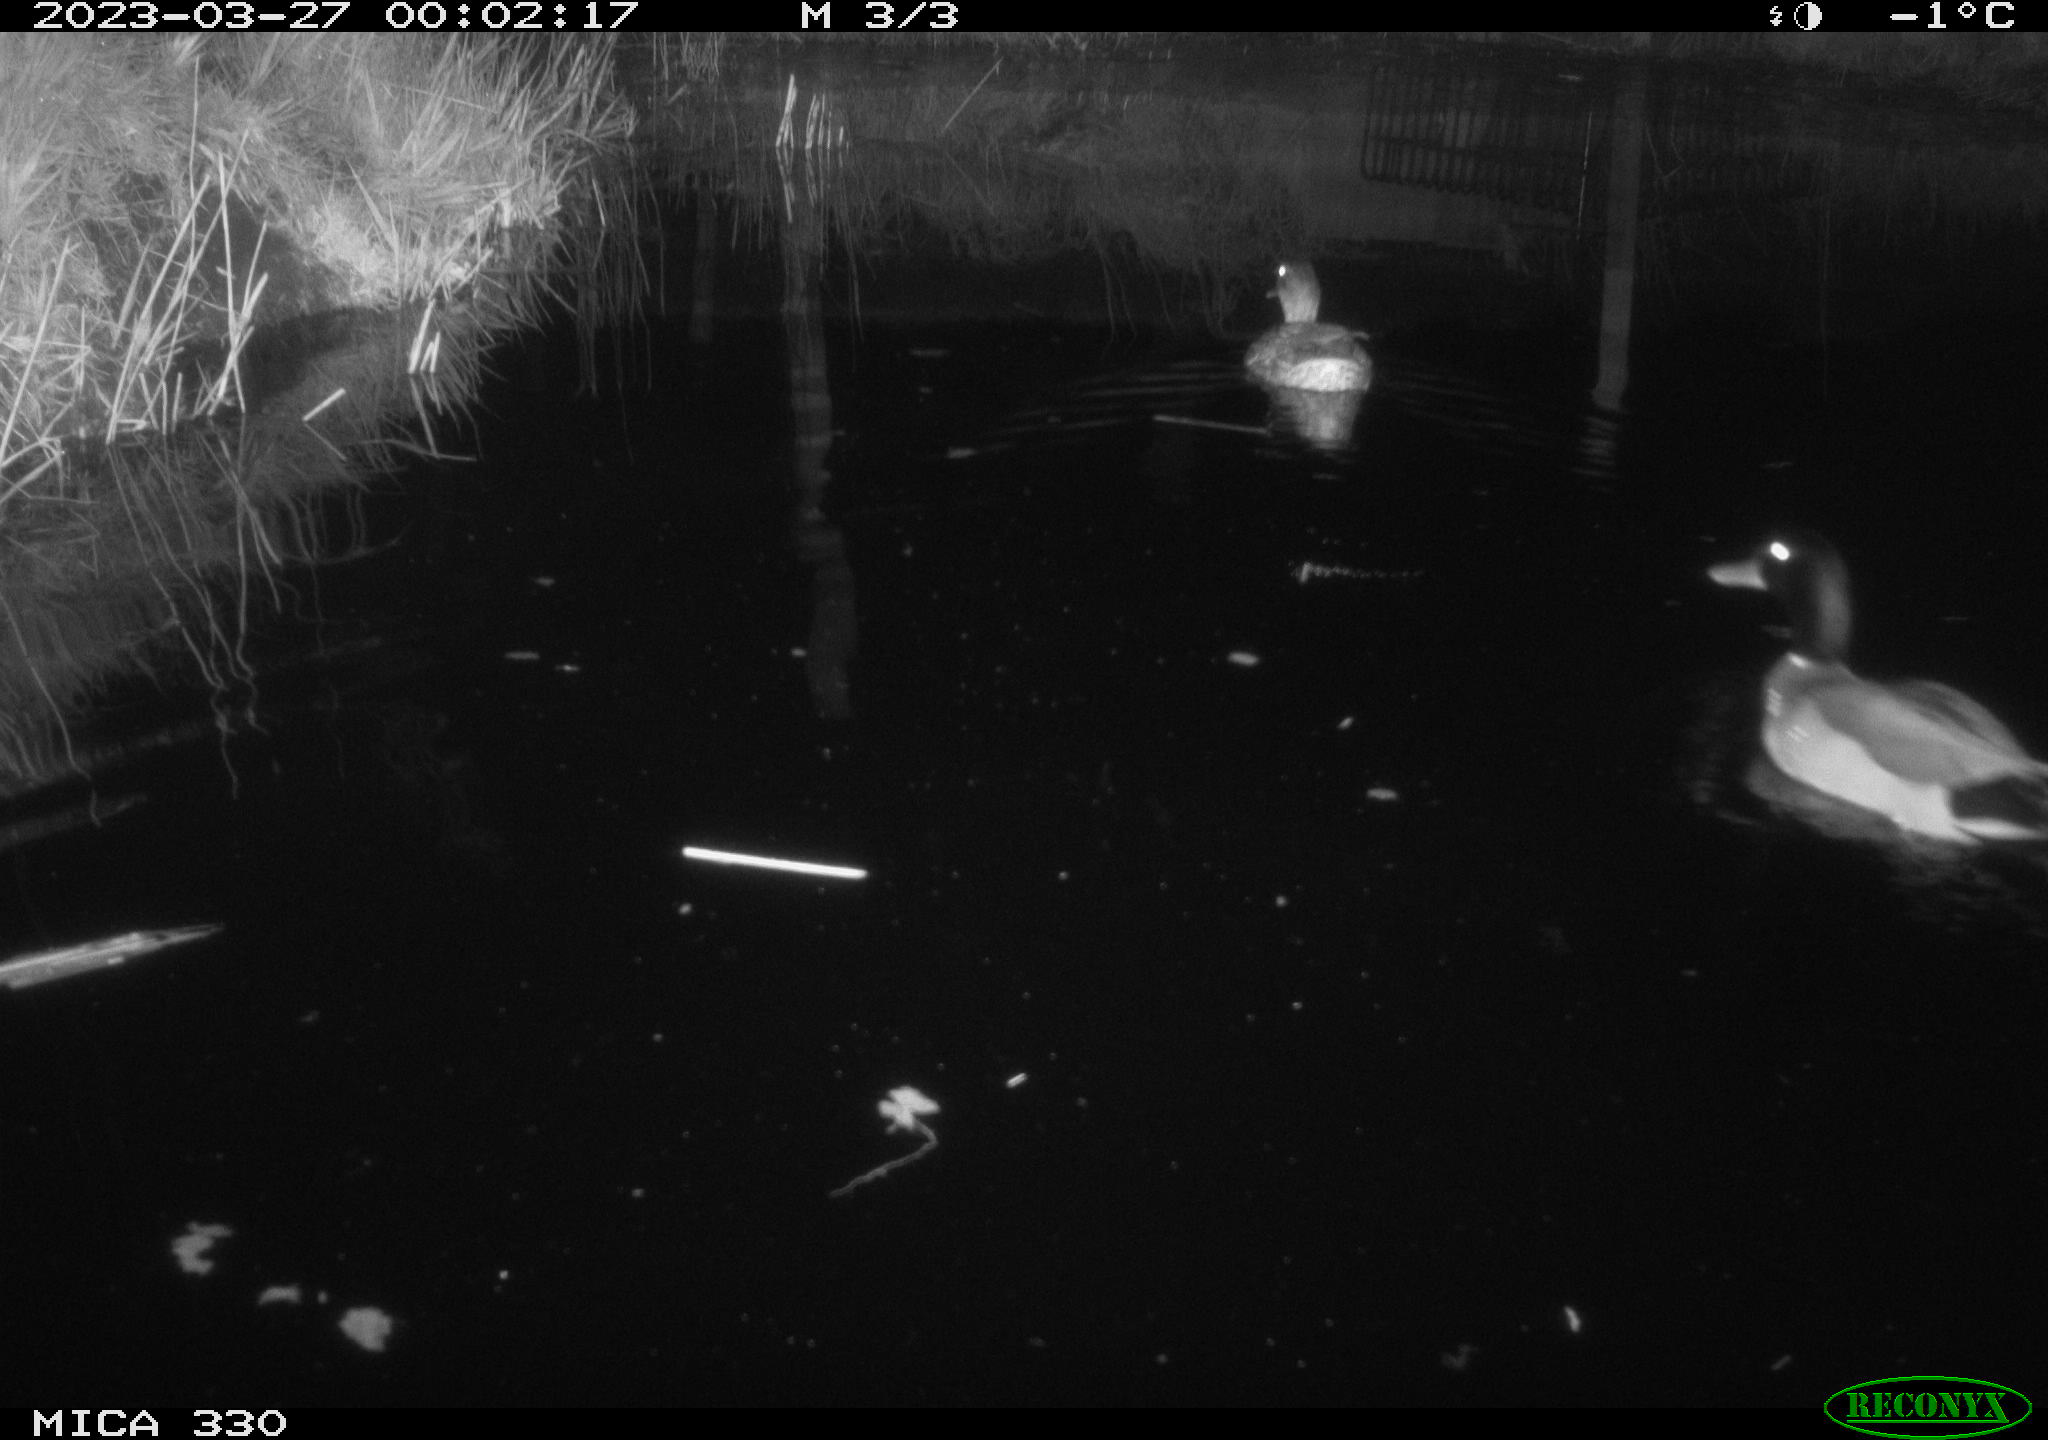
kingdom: Animalia
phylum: Chordata
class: Aves
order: Anseriformes
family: Anatidae
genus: Anas
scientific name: Anas platyrhynchos
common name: Mallard
